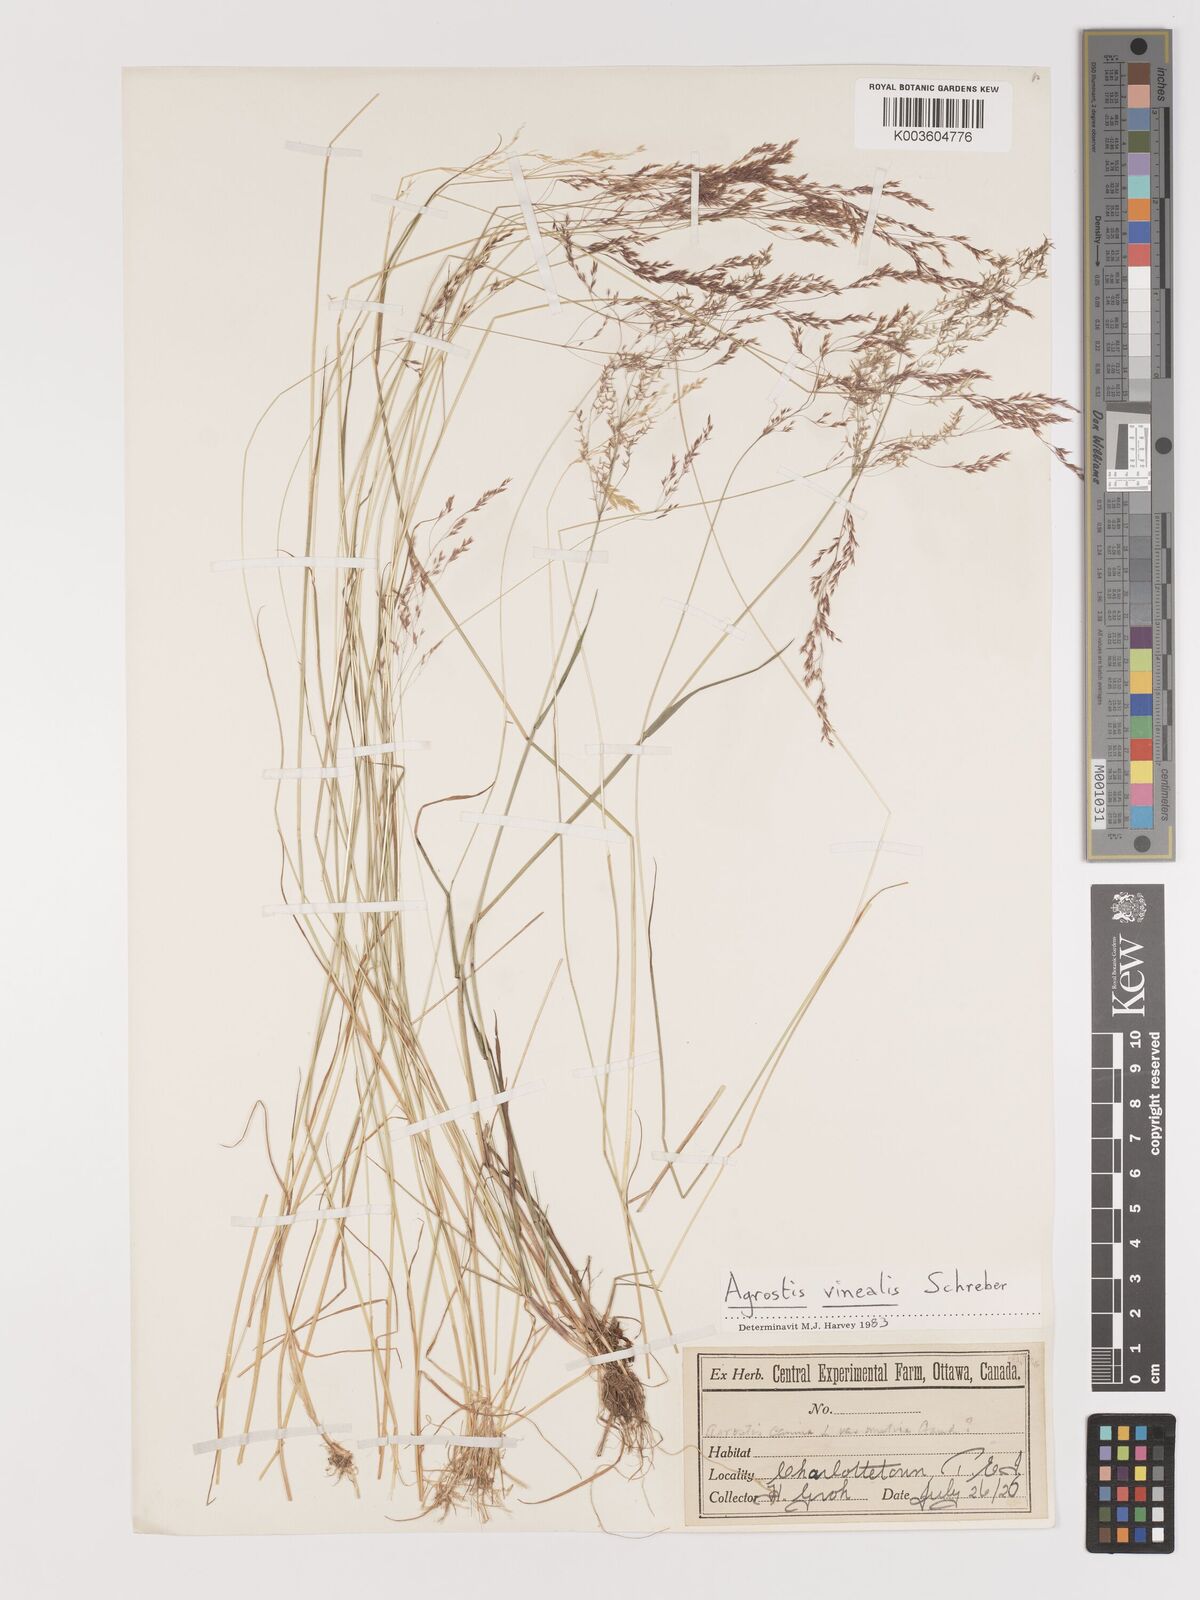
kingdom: Plantae
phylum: Tracheophyta
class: Liliopsida
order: Poales
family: Poaceae
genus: Agrostis
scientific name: Agrostis vinealis
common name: Brown bent
